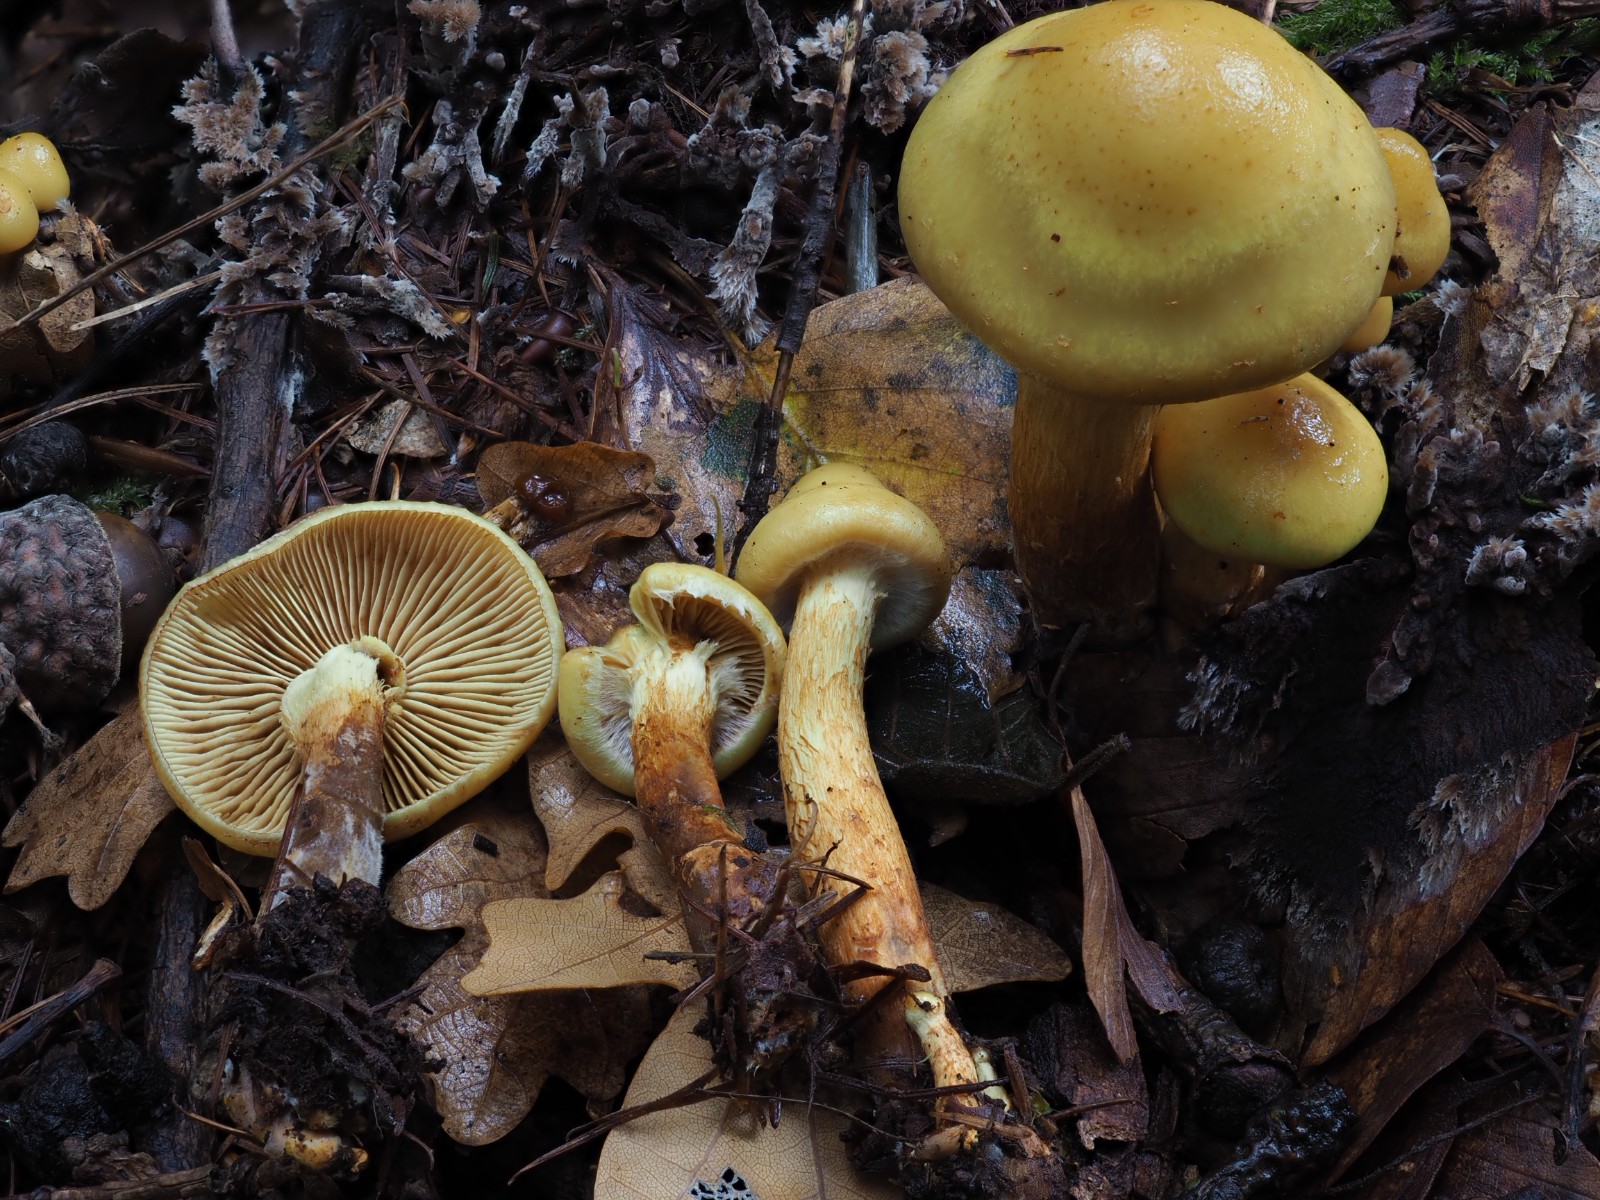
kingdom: Fungi
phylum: Basidiomycota
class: Agaricomycetes
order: Agaricales
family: Hymenogastraceae
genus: Flammula
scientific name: Flammula alnicola
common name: elle-skælhat
